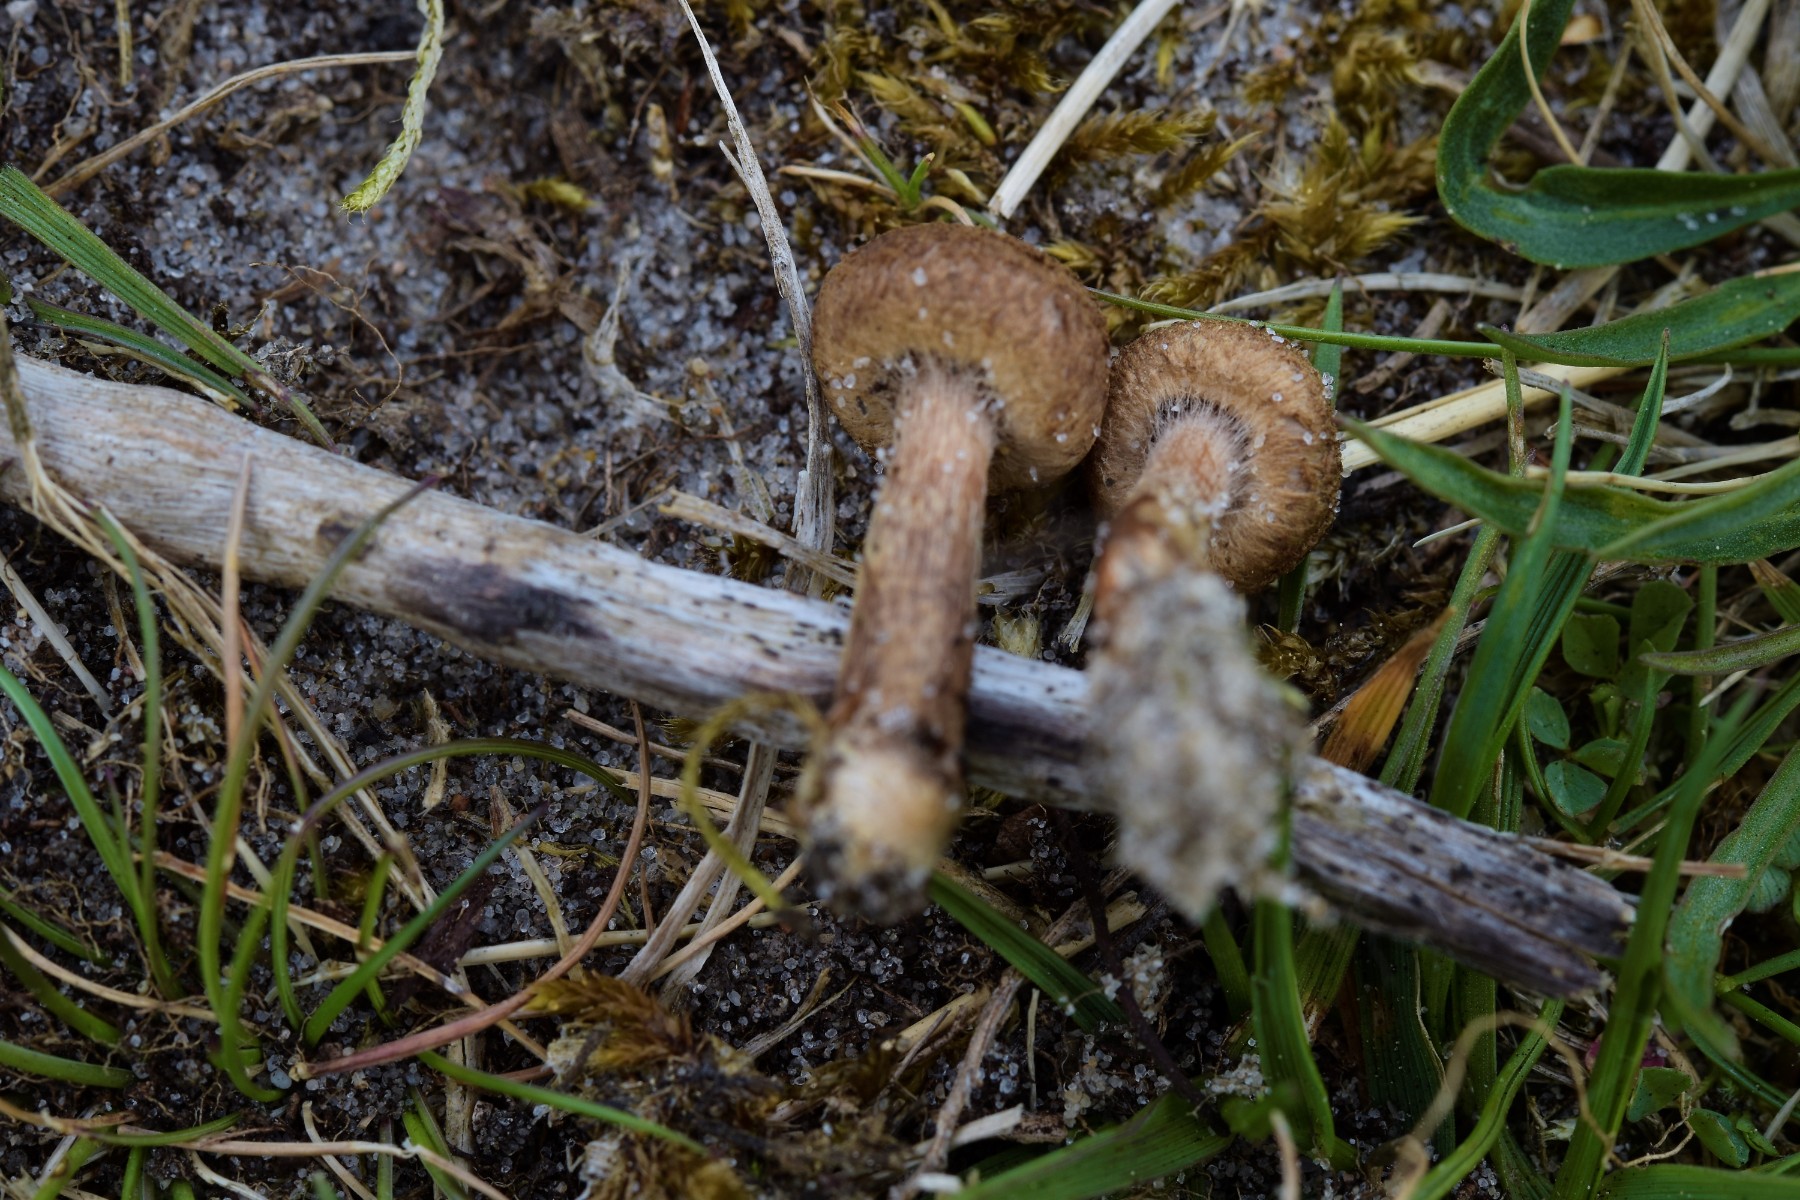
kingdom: Fungi
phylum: Basidiomycota
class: Agaricomycetes
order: Agaricales
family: Inocybaceae
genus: Inocybe
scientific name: Inocybe helobia
